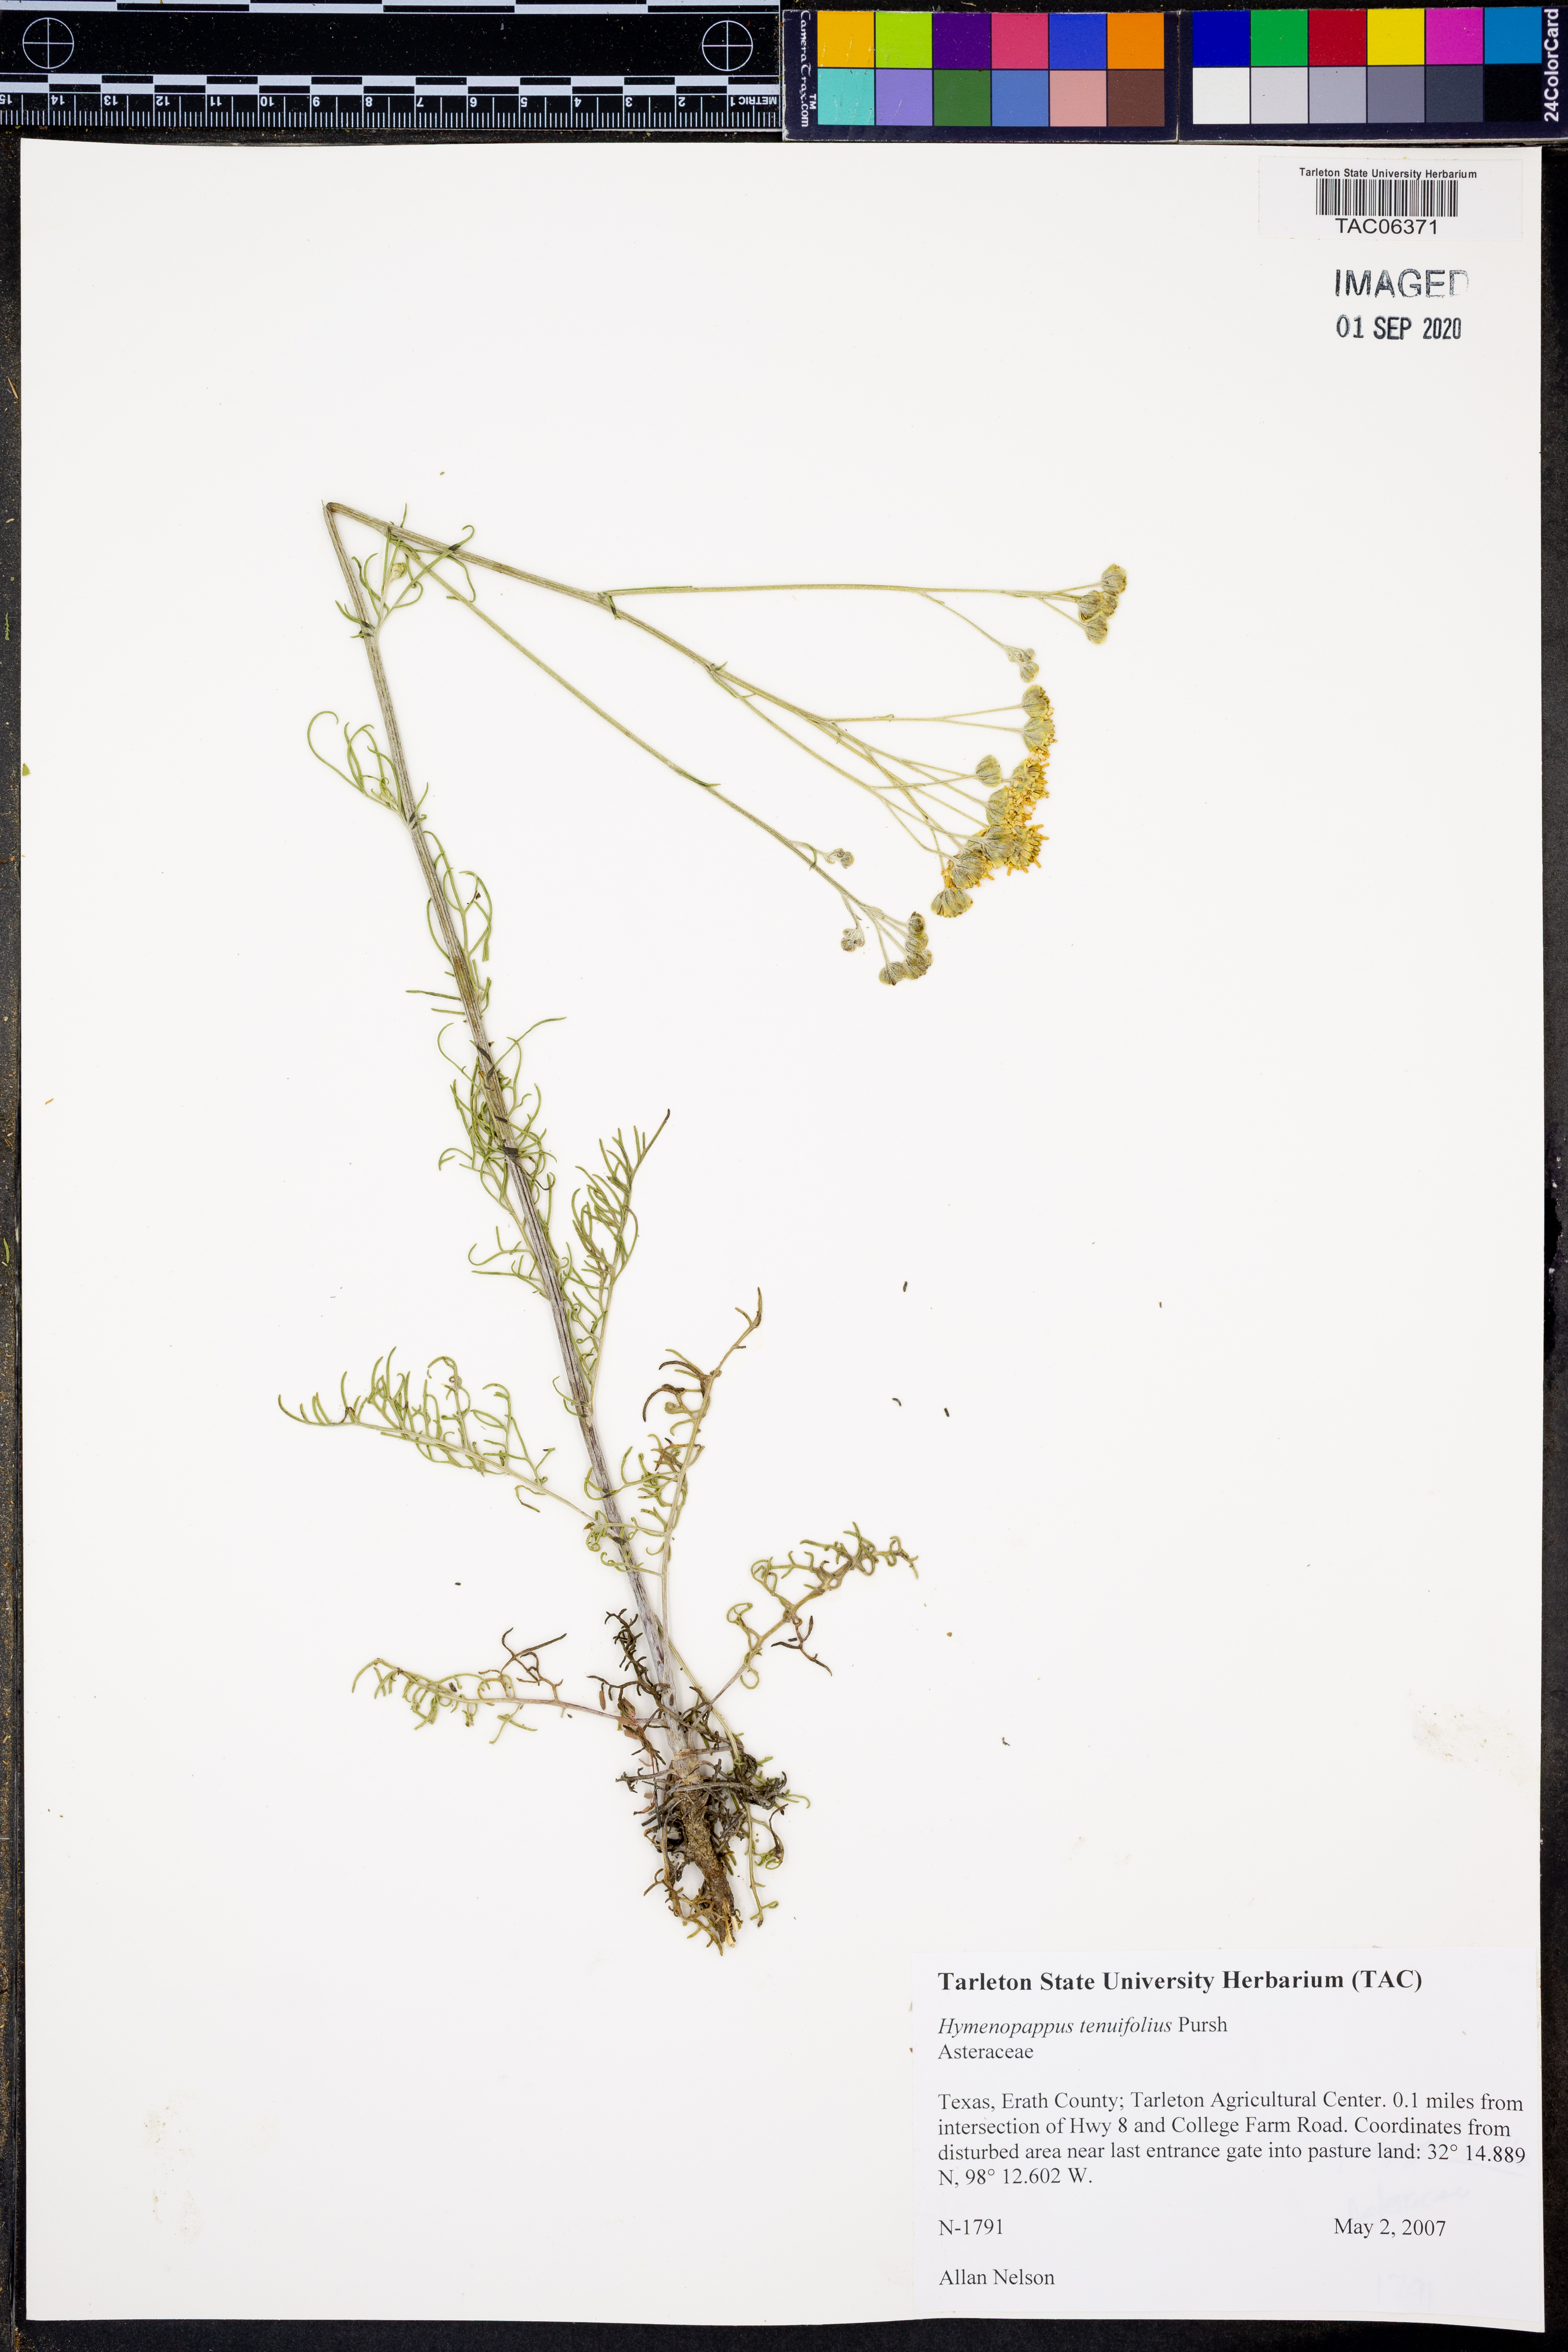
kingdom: Plantae
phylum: Tracheophyta
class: Magnoliopsida
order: Asterales
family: Asteraceae
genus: Hymenopappus
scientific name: Hymenopappus tenuifolius
